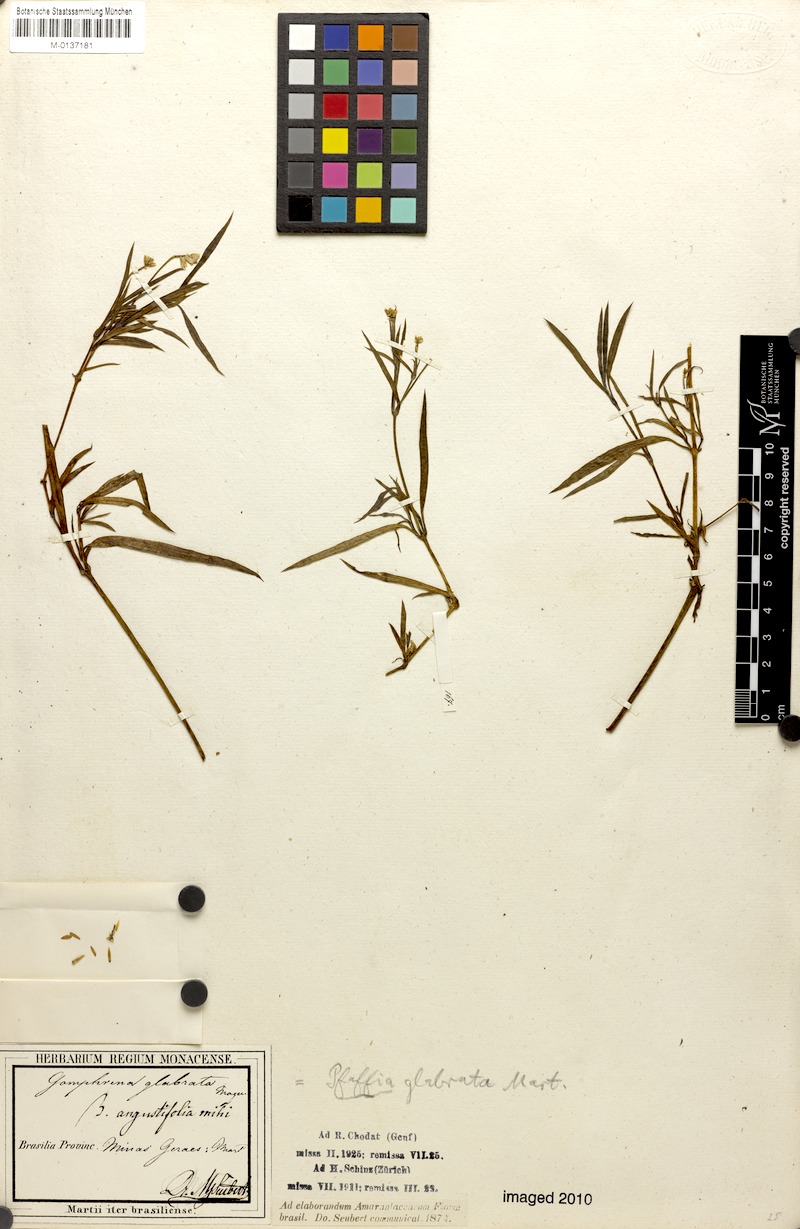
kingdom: Plantae
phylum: Tracheophyta
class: Magnoliopsida
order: Caryophyllales
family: Amaranthaceae
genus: Pfaffia
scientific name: Pfaffia glabrata
